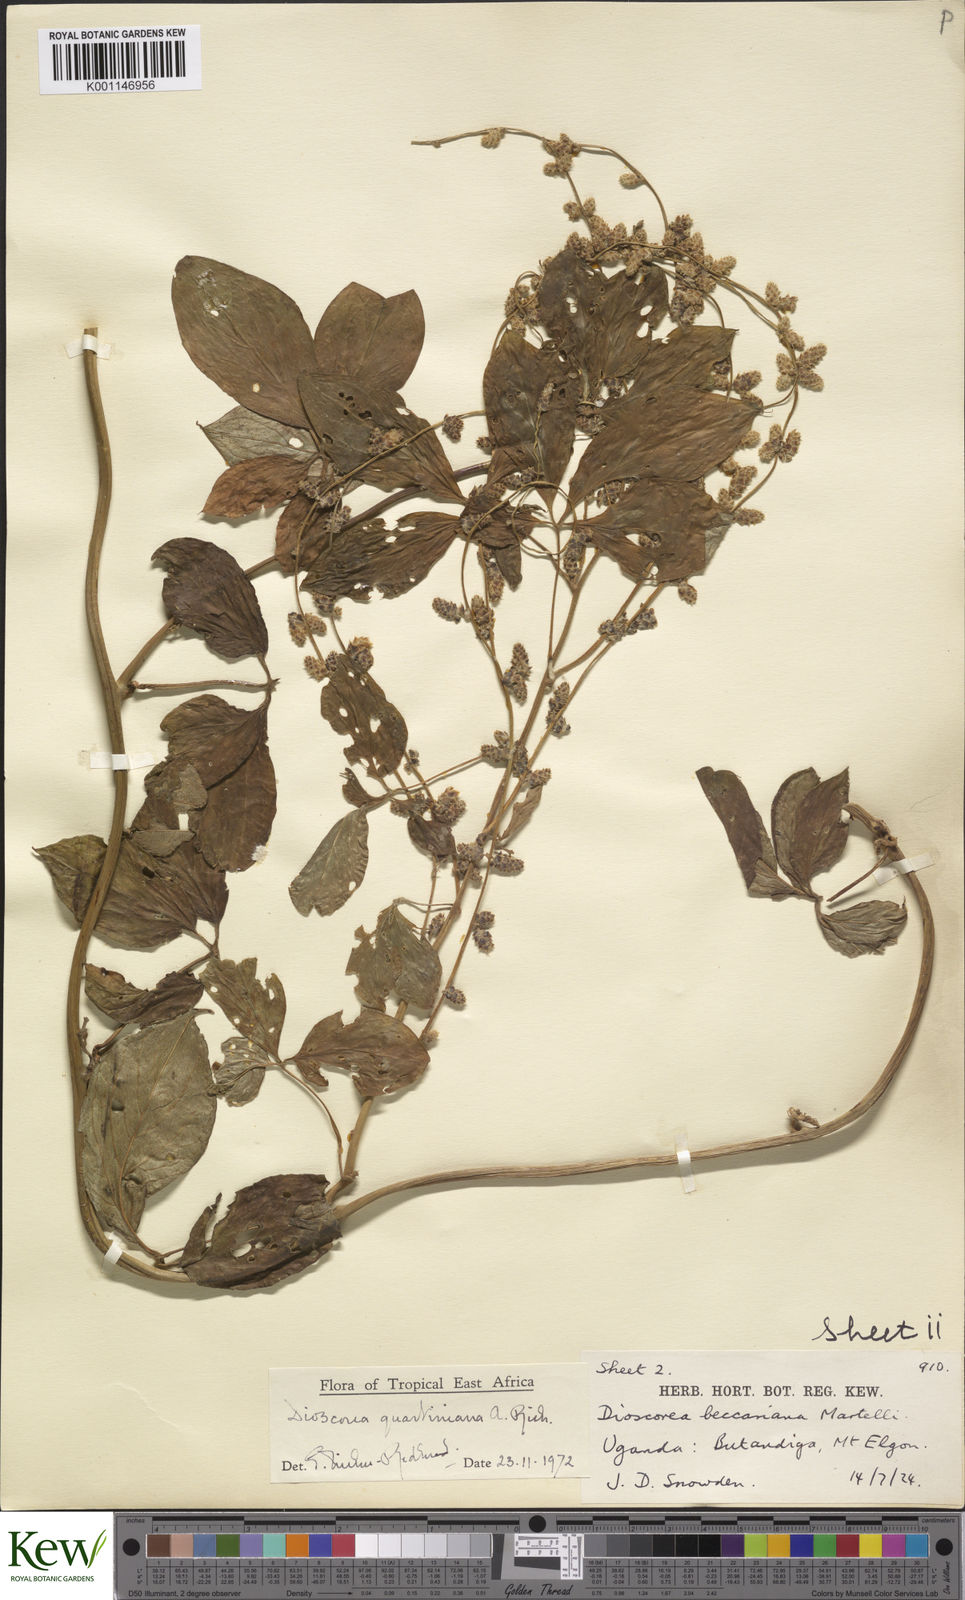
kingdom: Plantae
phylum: Tracheophyta
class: Liliopsida
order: Dioscoreales
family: Dioscoreaceae
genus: Dioscorea
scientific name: Dioscorea quartiniana
